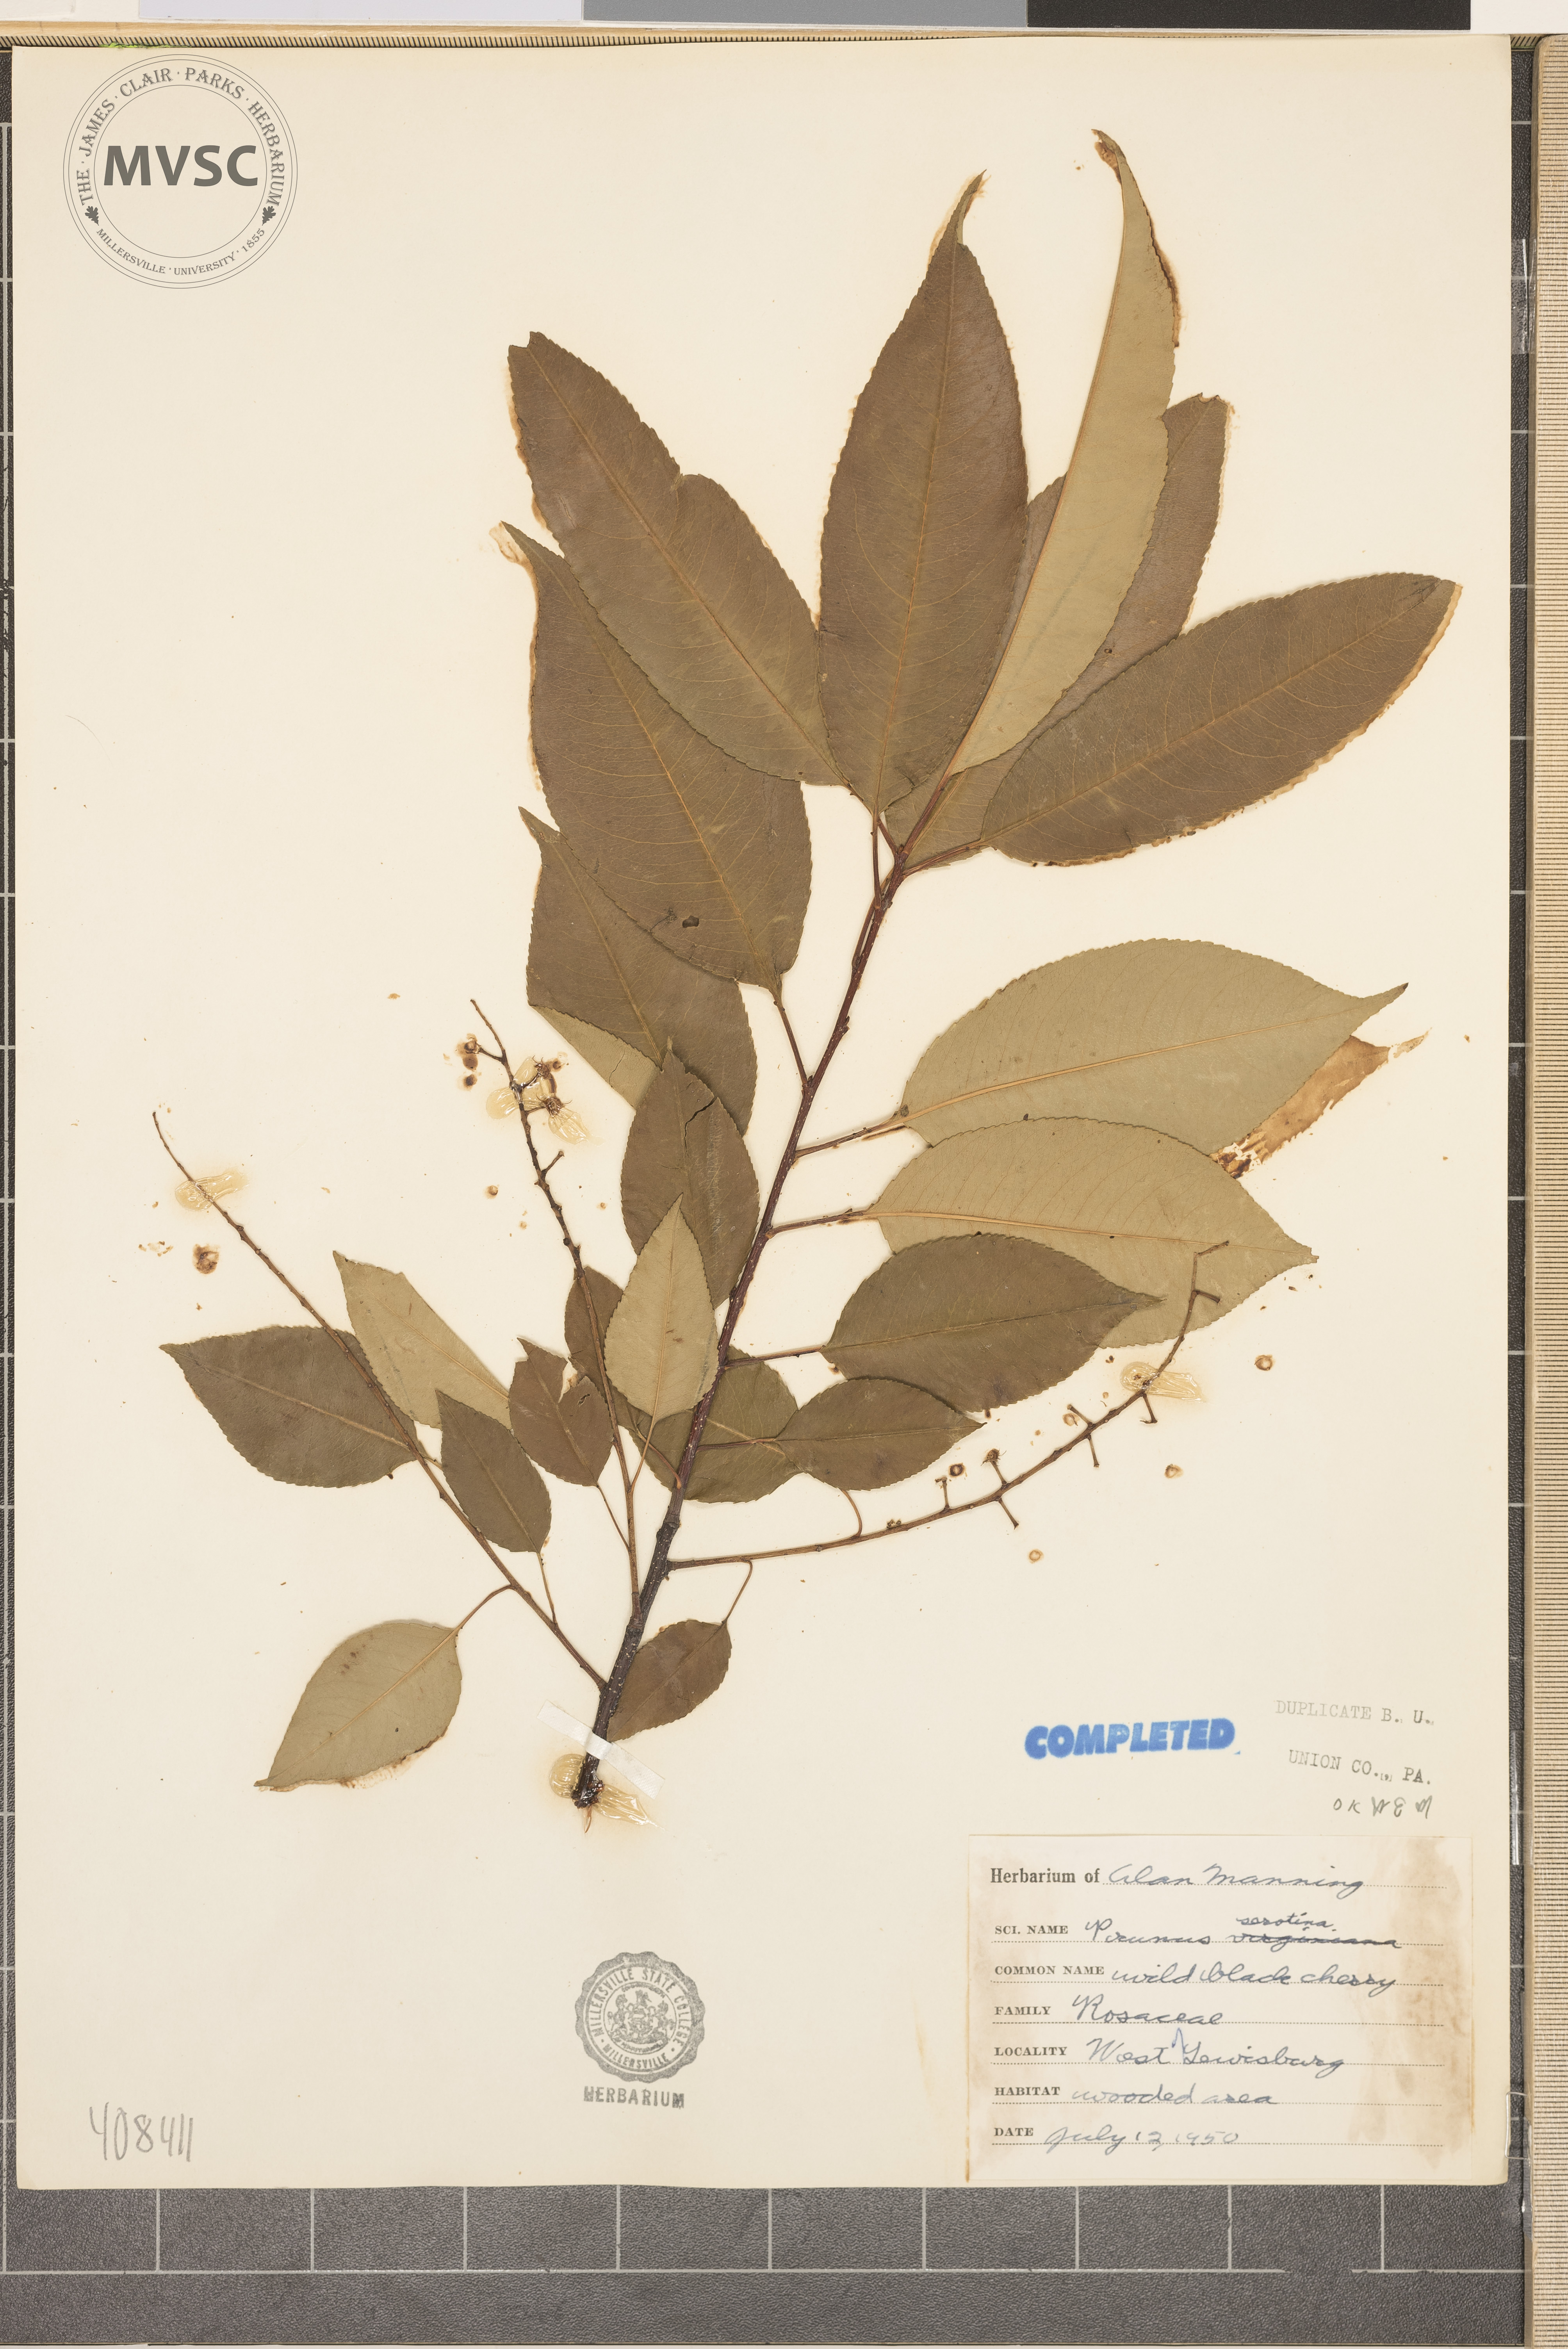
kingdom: Plantae
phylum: Tracheophyta
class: Magnoliopsida
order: Rosales
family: Rosaceae
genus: Prunus
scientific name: Prunus serotina
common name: Black cherry
